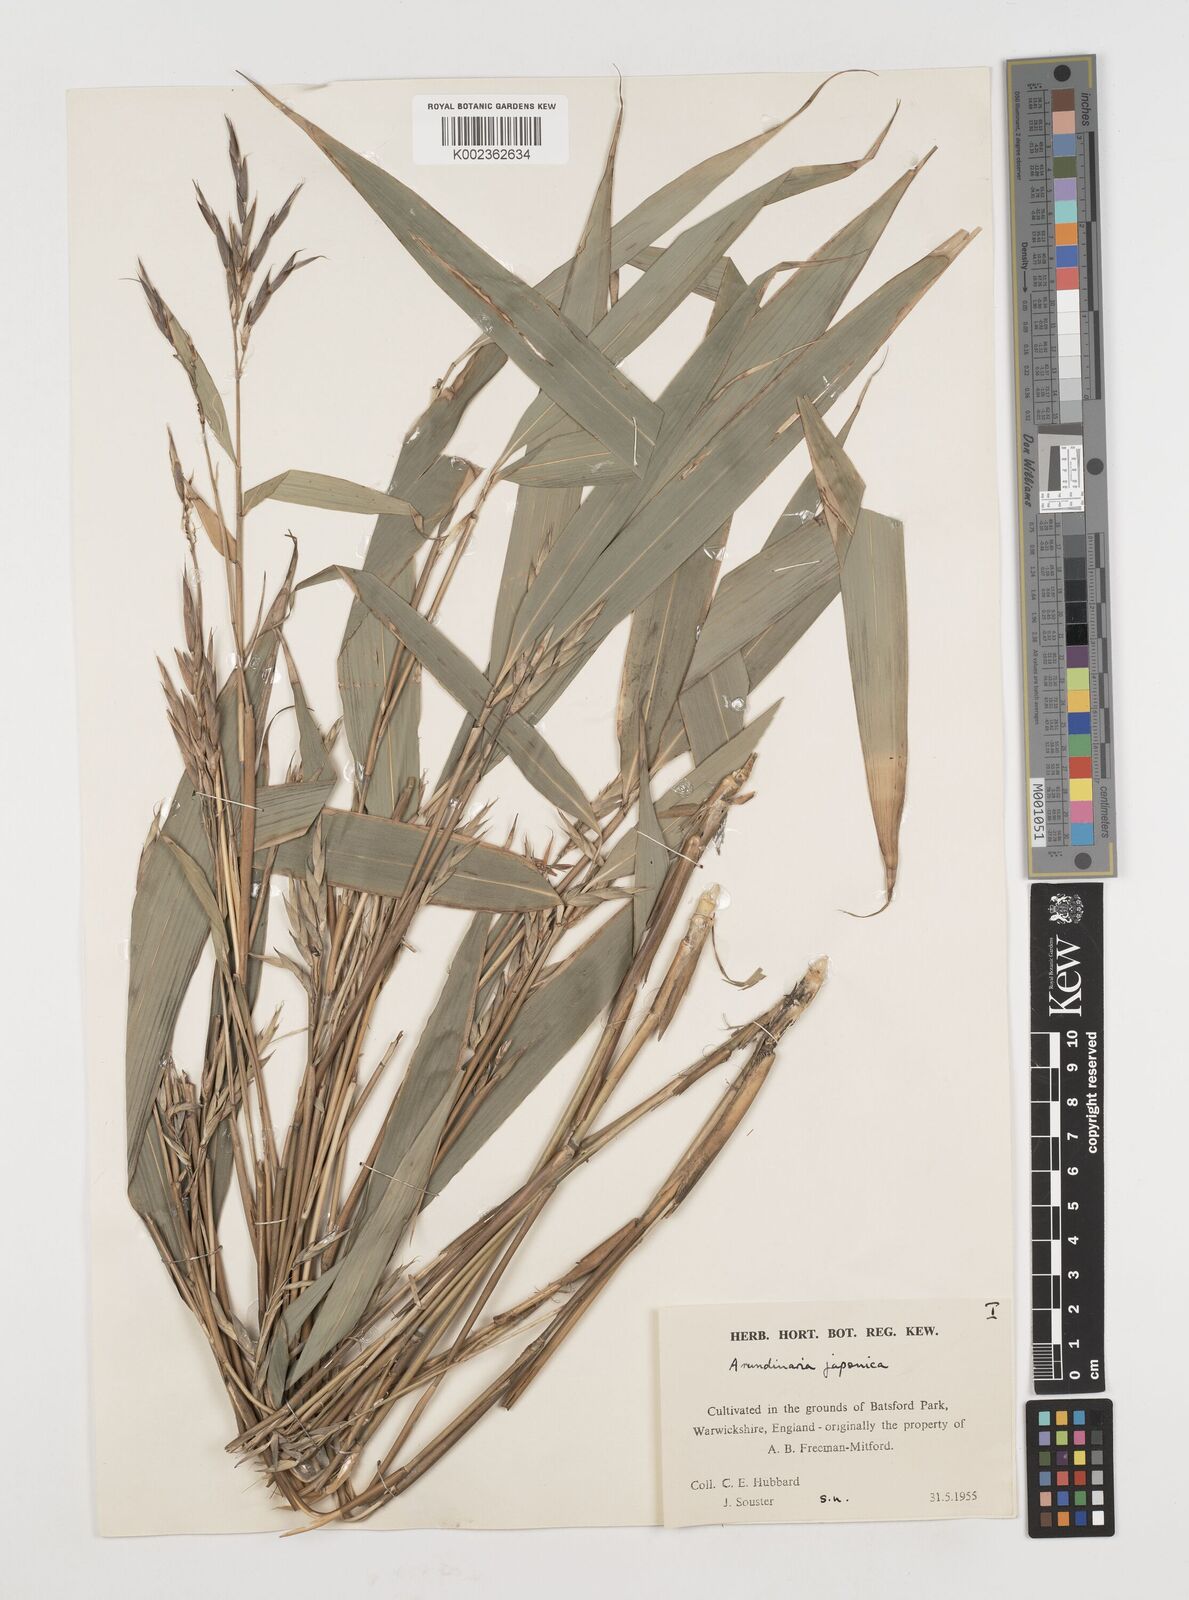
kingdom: Plantae
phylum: Tracheophyta
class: Liliopsida
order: Poales
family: Poaceae
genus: Pseudosasa
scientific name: Pseudosasa japonica
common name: Arrow bamboo
